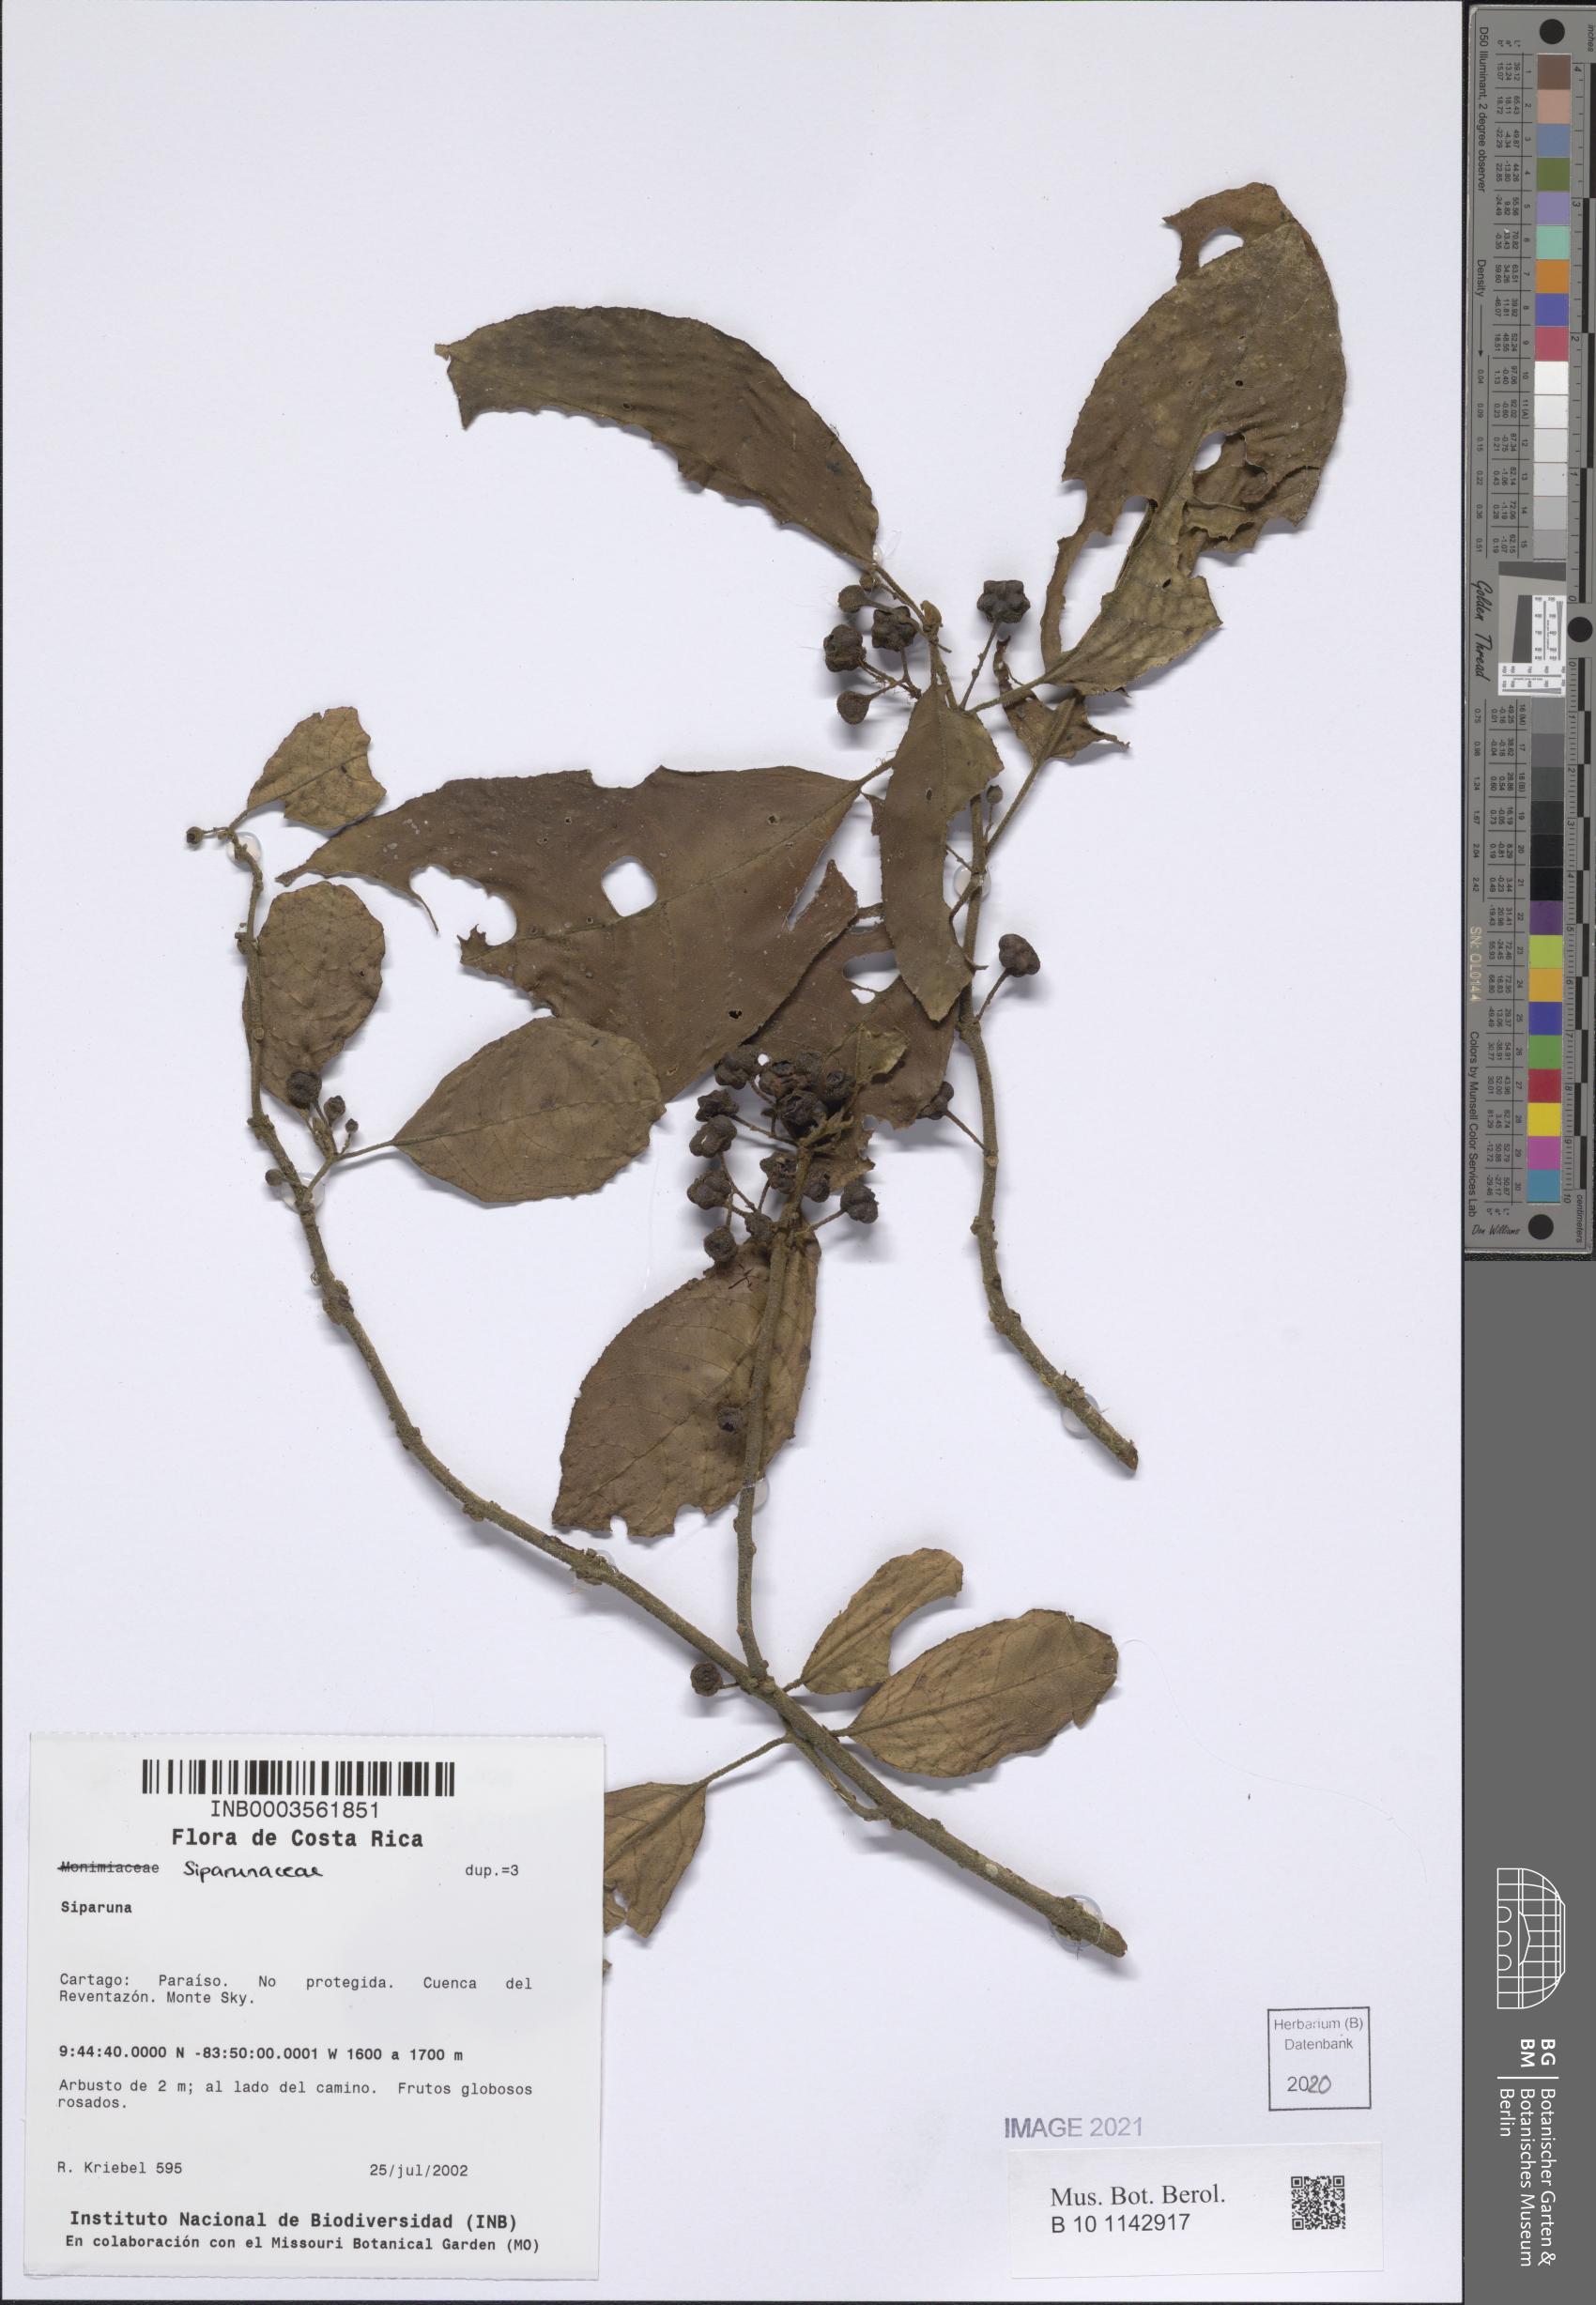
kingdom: Plantae
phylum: Tracheophyta
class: Magnoliopsida
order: Laurales
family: Siparunaceae
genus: Siparuna
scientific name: Siparuna
